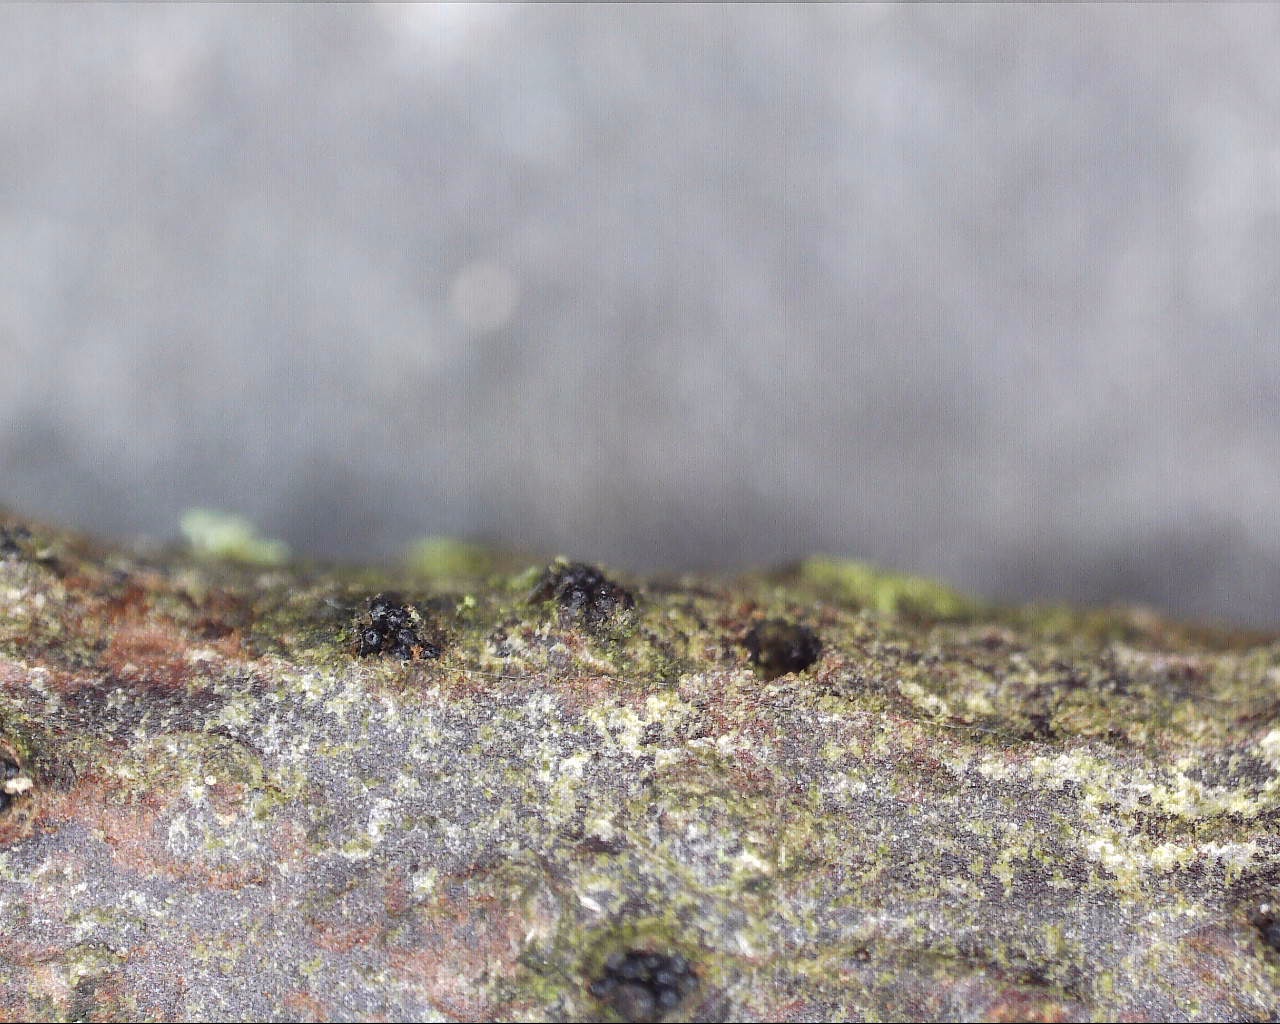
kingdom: Fungi
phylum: Ascomycota
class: Sordariomycetes
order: Diaporthales
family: Diaporthaceae
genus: Diaporthe
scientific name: Diaporthe syngenesia
